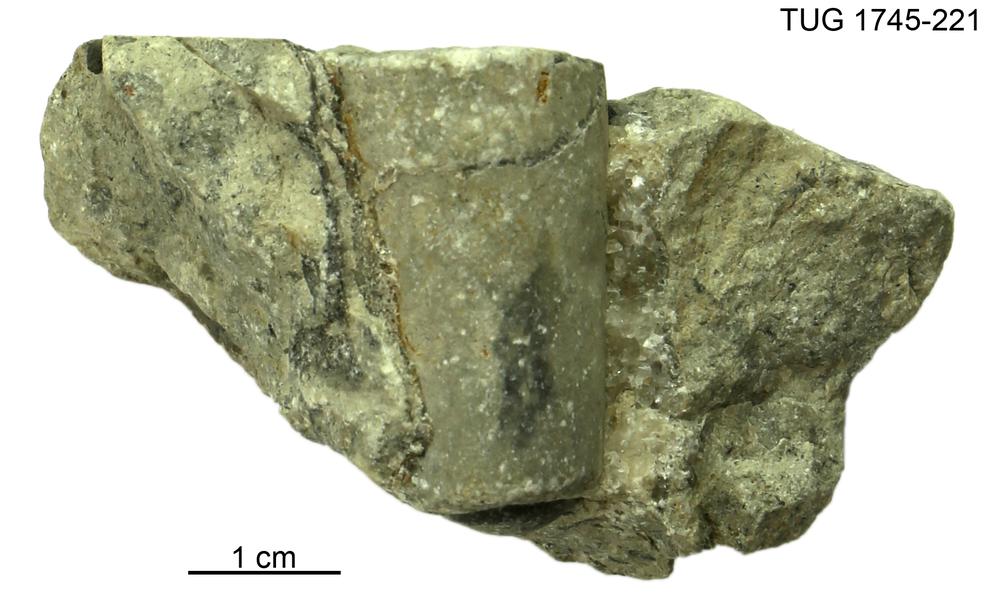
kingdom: Animalia
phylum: Mollusca
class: Cephalopoda
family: Endoceratidae
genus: Cameroceras
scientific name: Cameroceras Rossicoceras hasta
